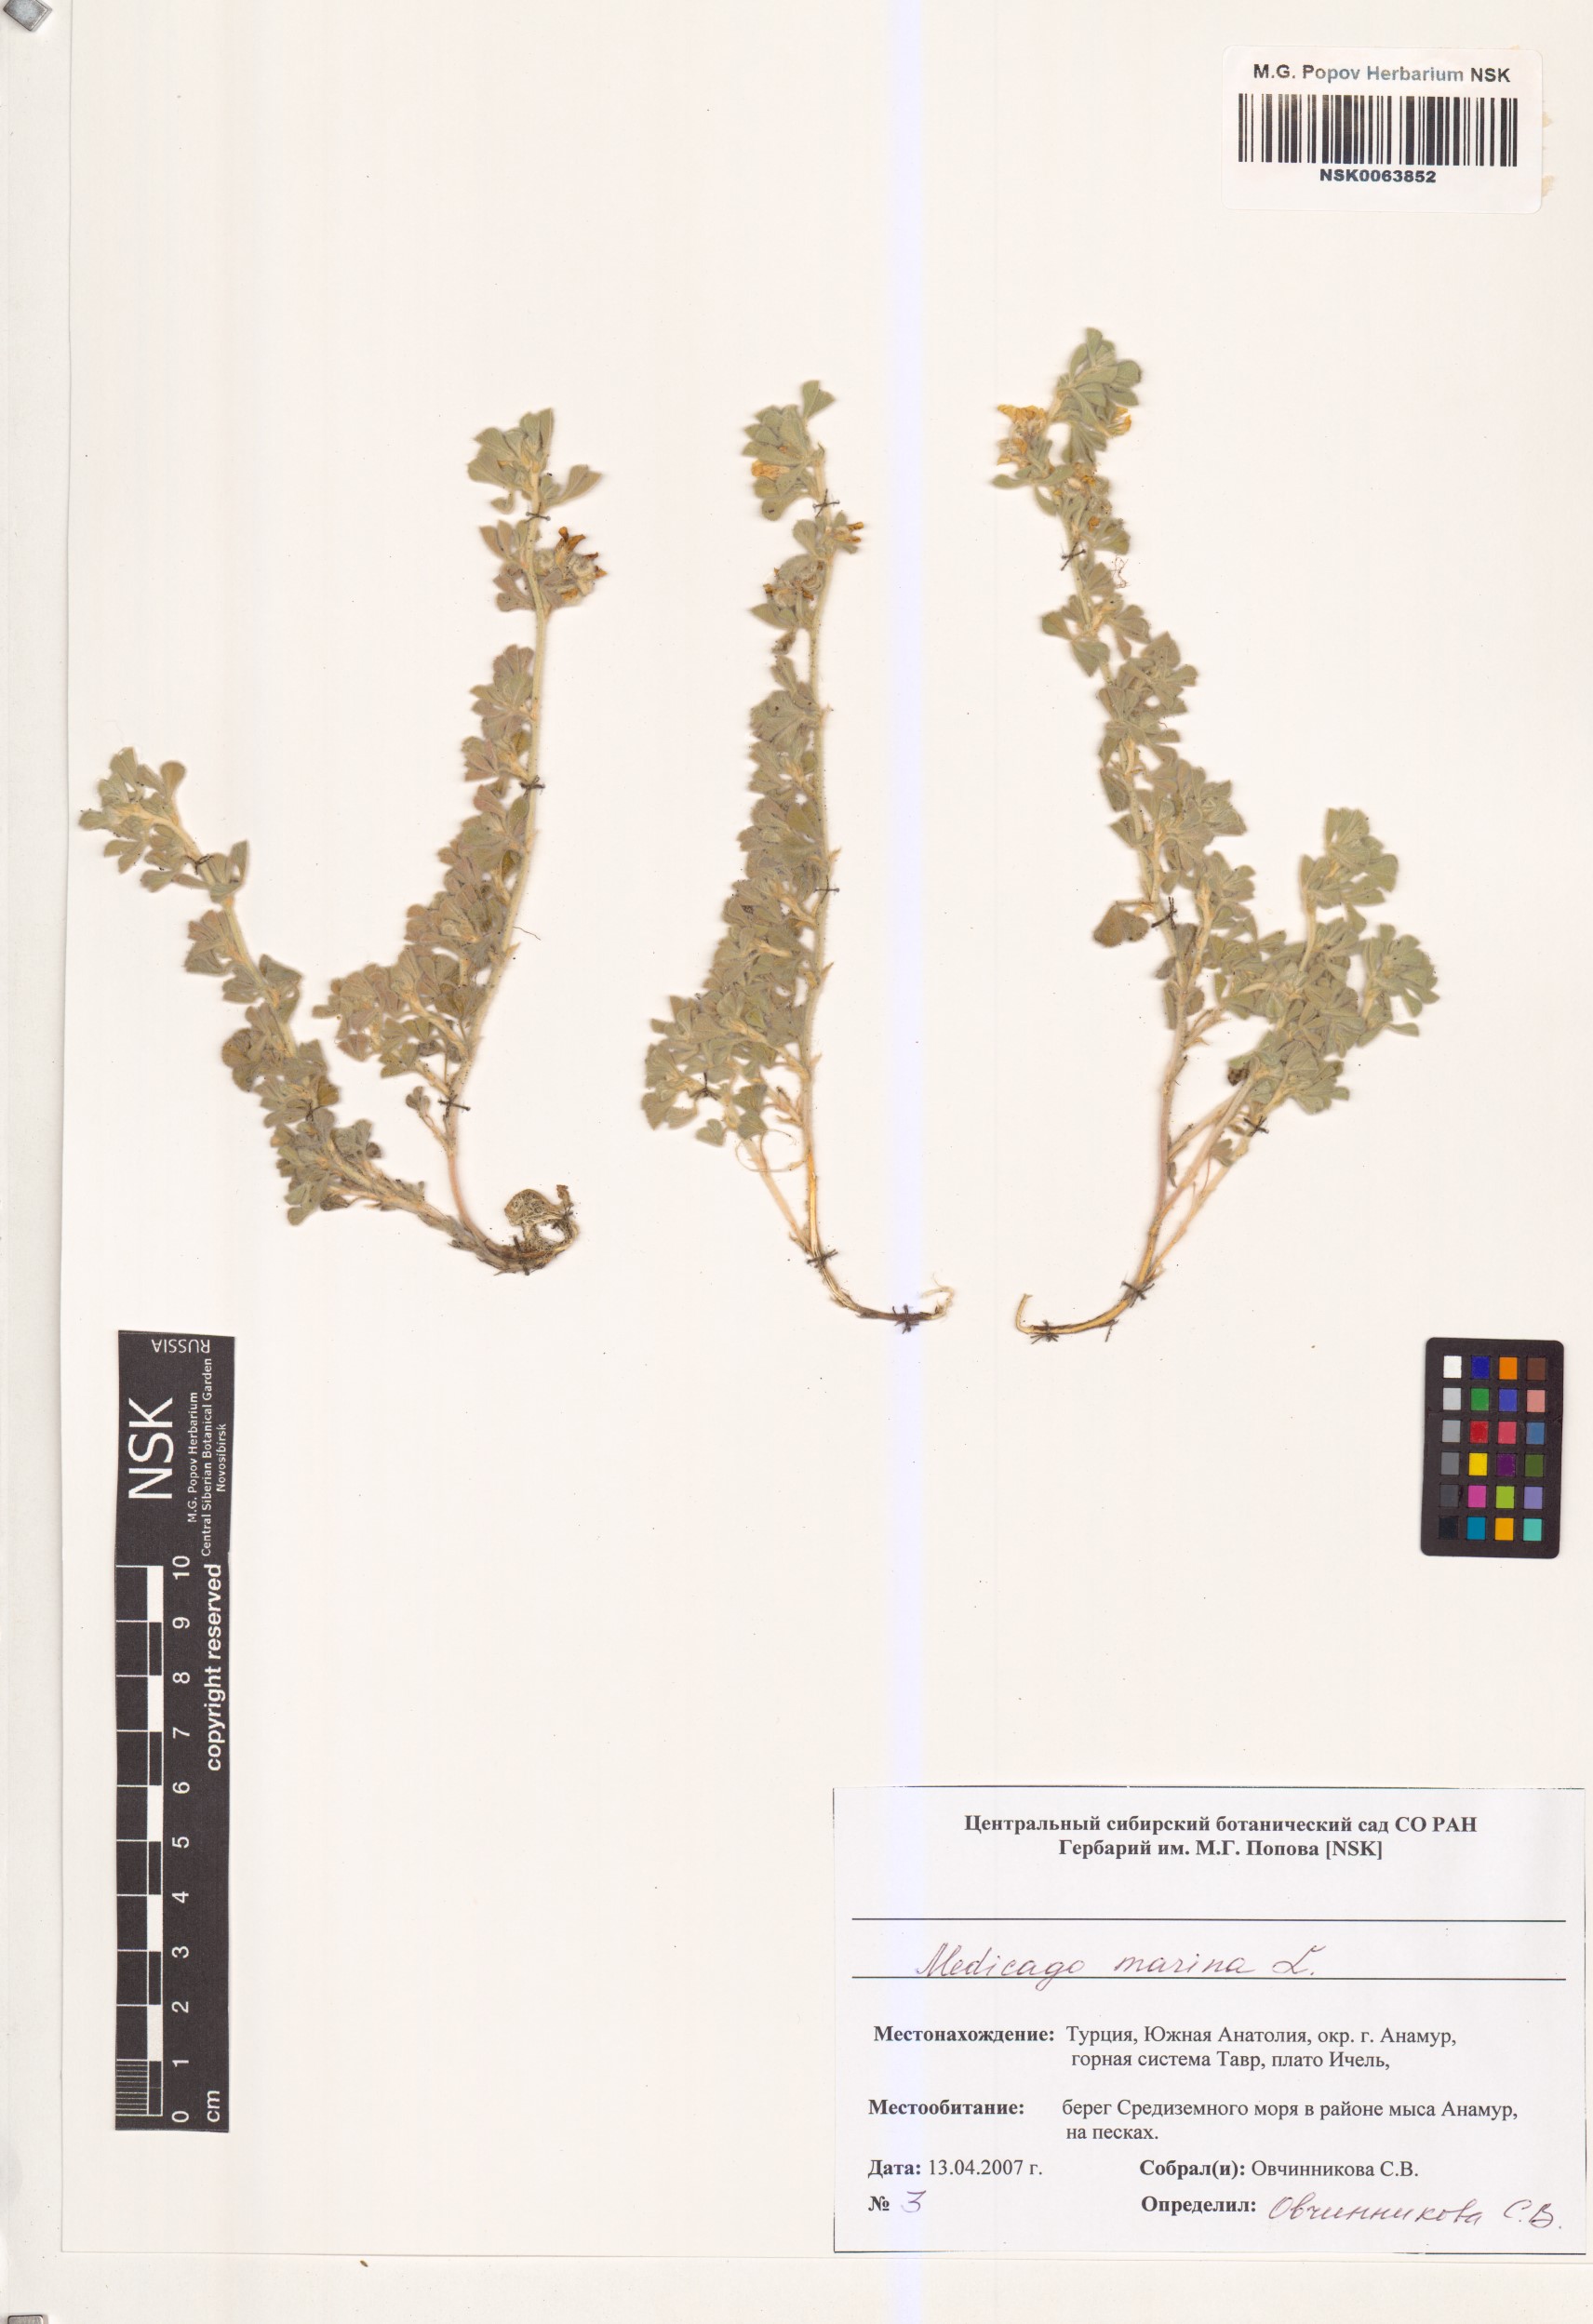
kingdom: Plantae
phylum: Tracheophyta
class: Magnoliopsida
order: Fabales
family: Fabaceae
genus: Medicago
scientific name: Medicago marina
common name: Sea medick
